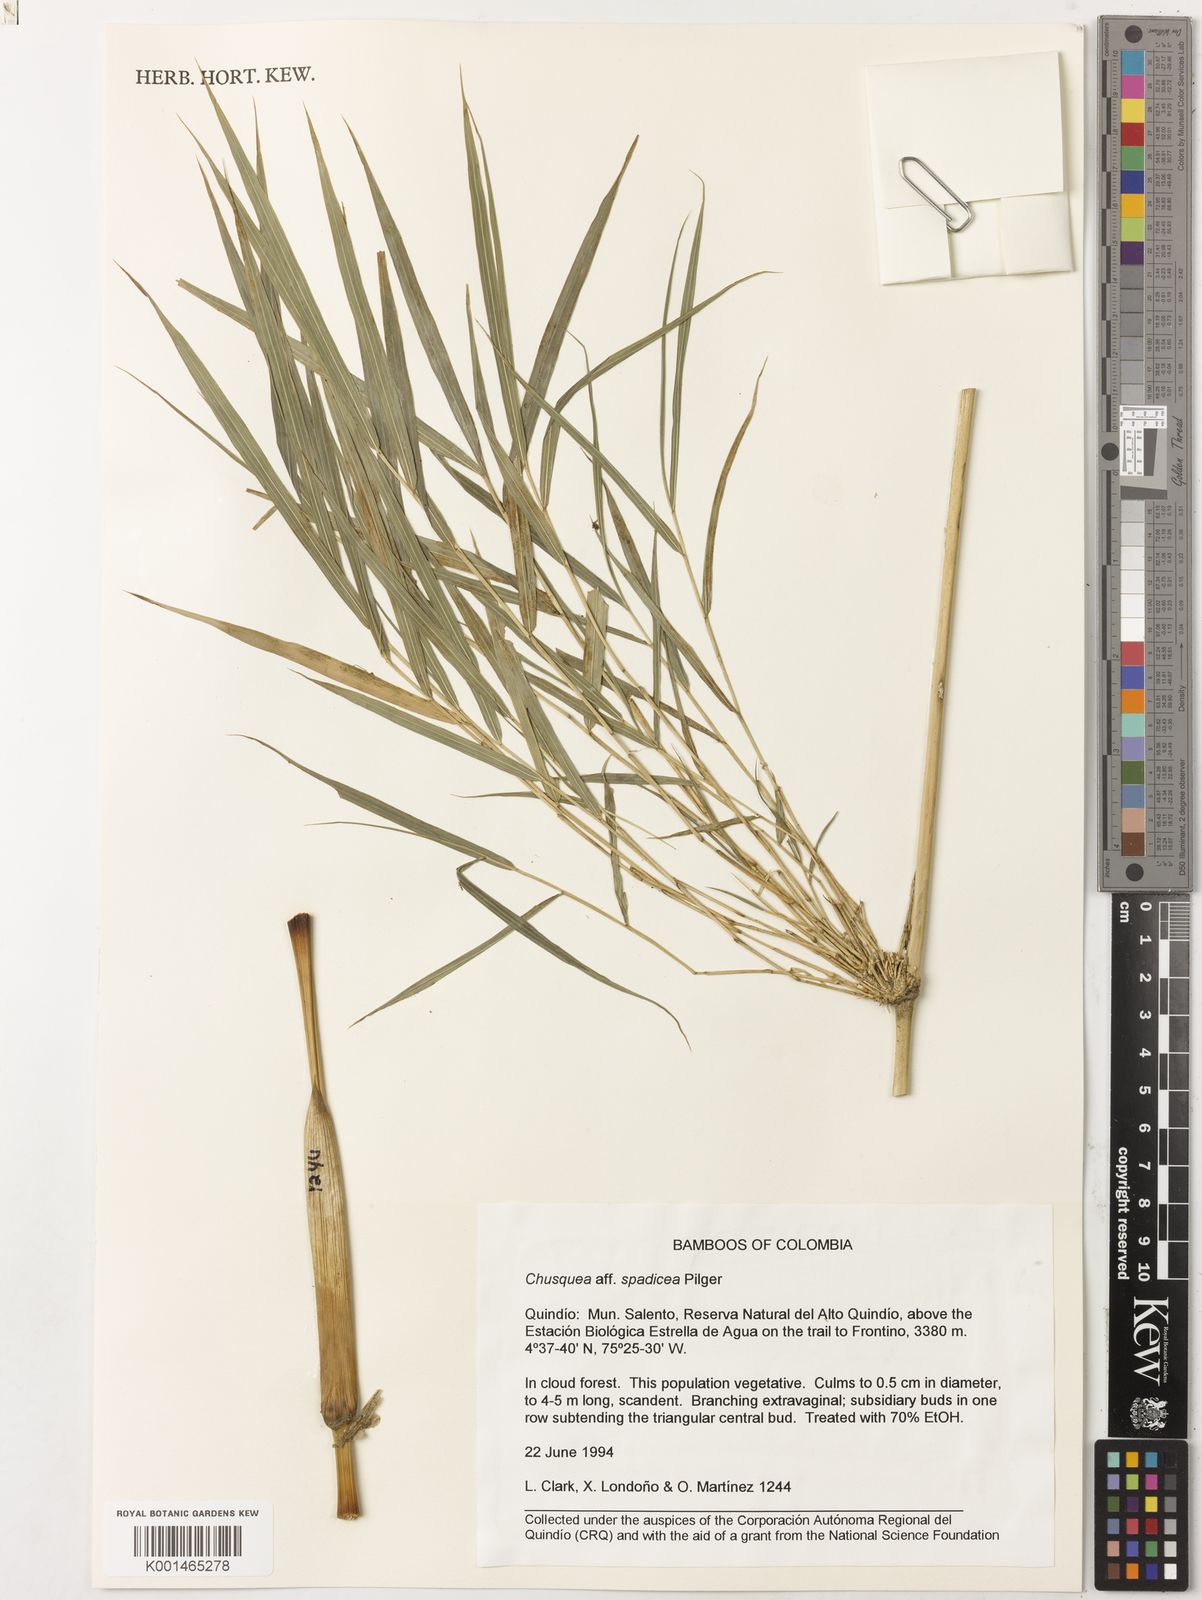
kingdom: Plantae
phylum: Tracheophyta
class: Liliopsida
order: Poales
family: Poaceae
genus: Chusquea
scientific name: Chusquea spadicea
